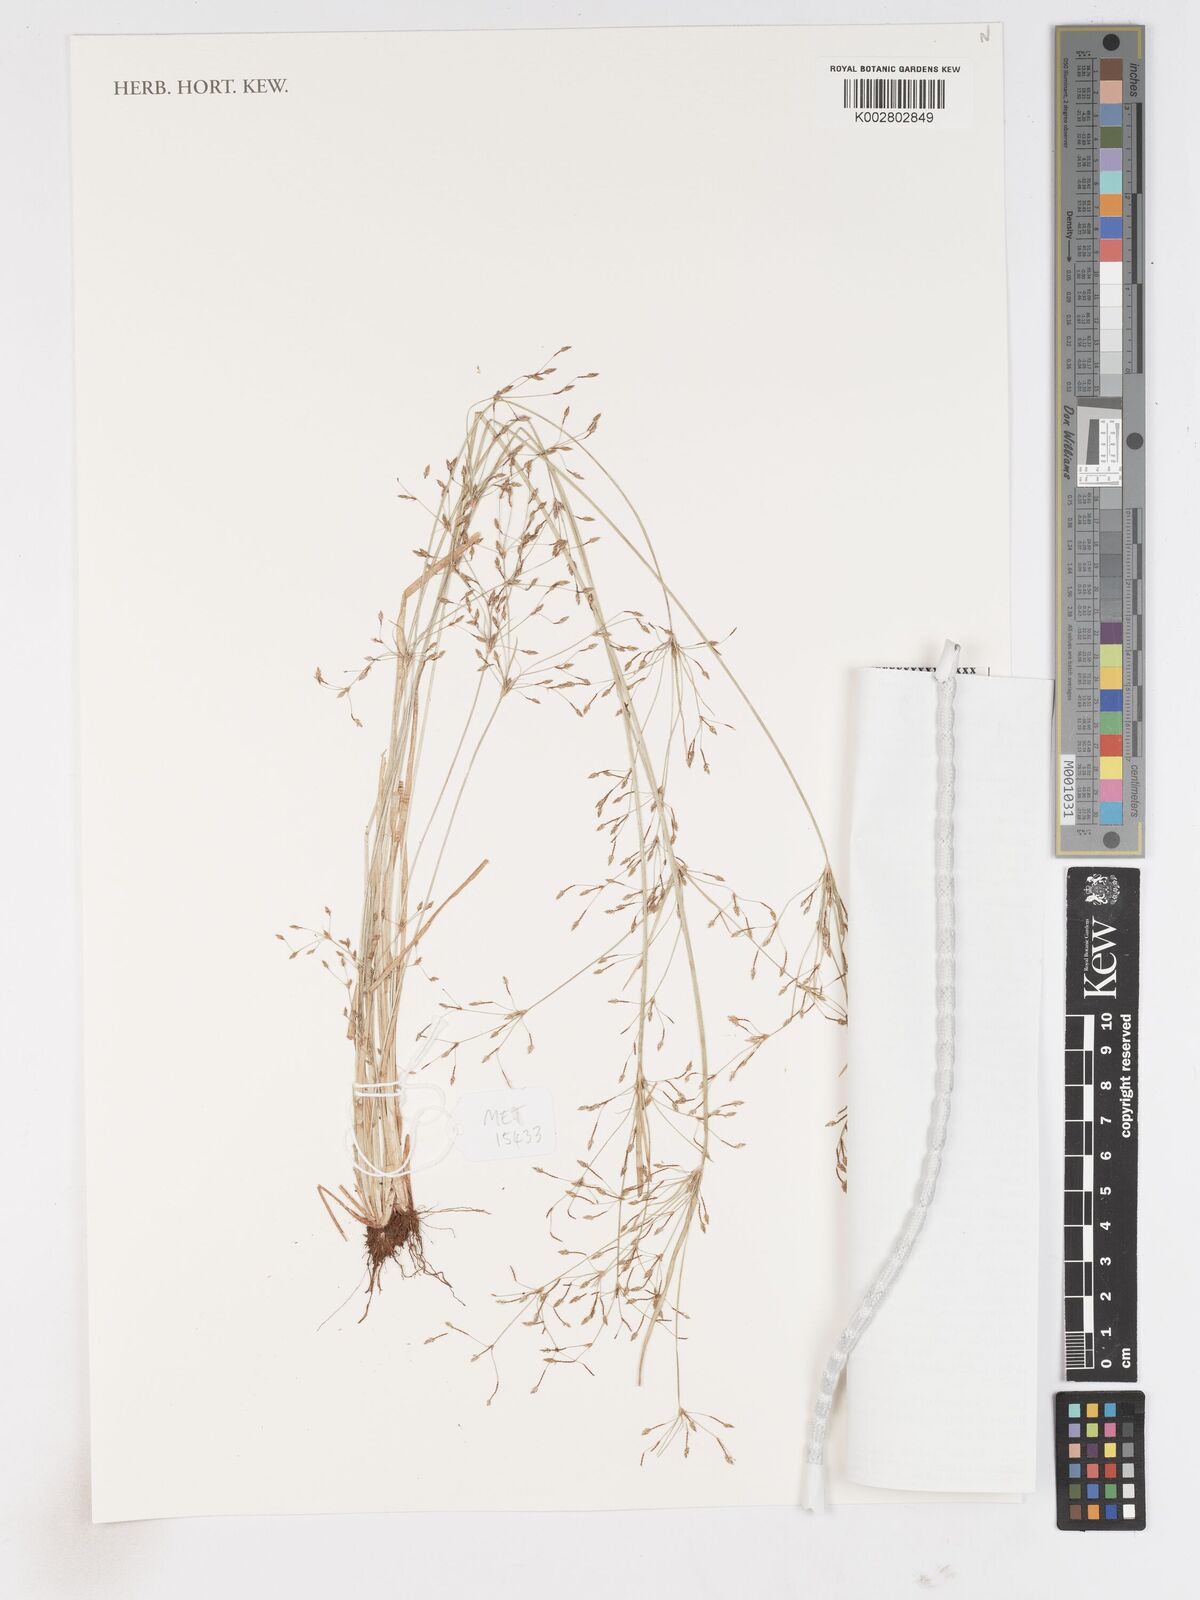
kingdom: Plantae
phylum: Tracheophyta
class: Liliopsida
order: Poales
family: Cyperaceae
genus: Fimbristylis
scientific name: Fimbristylis microcarya
